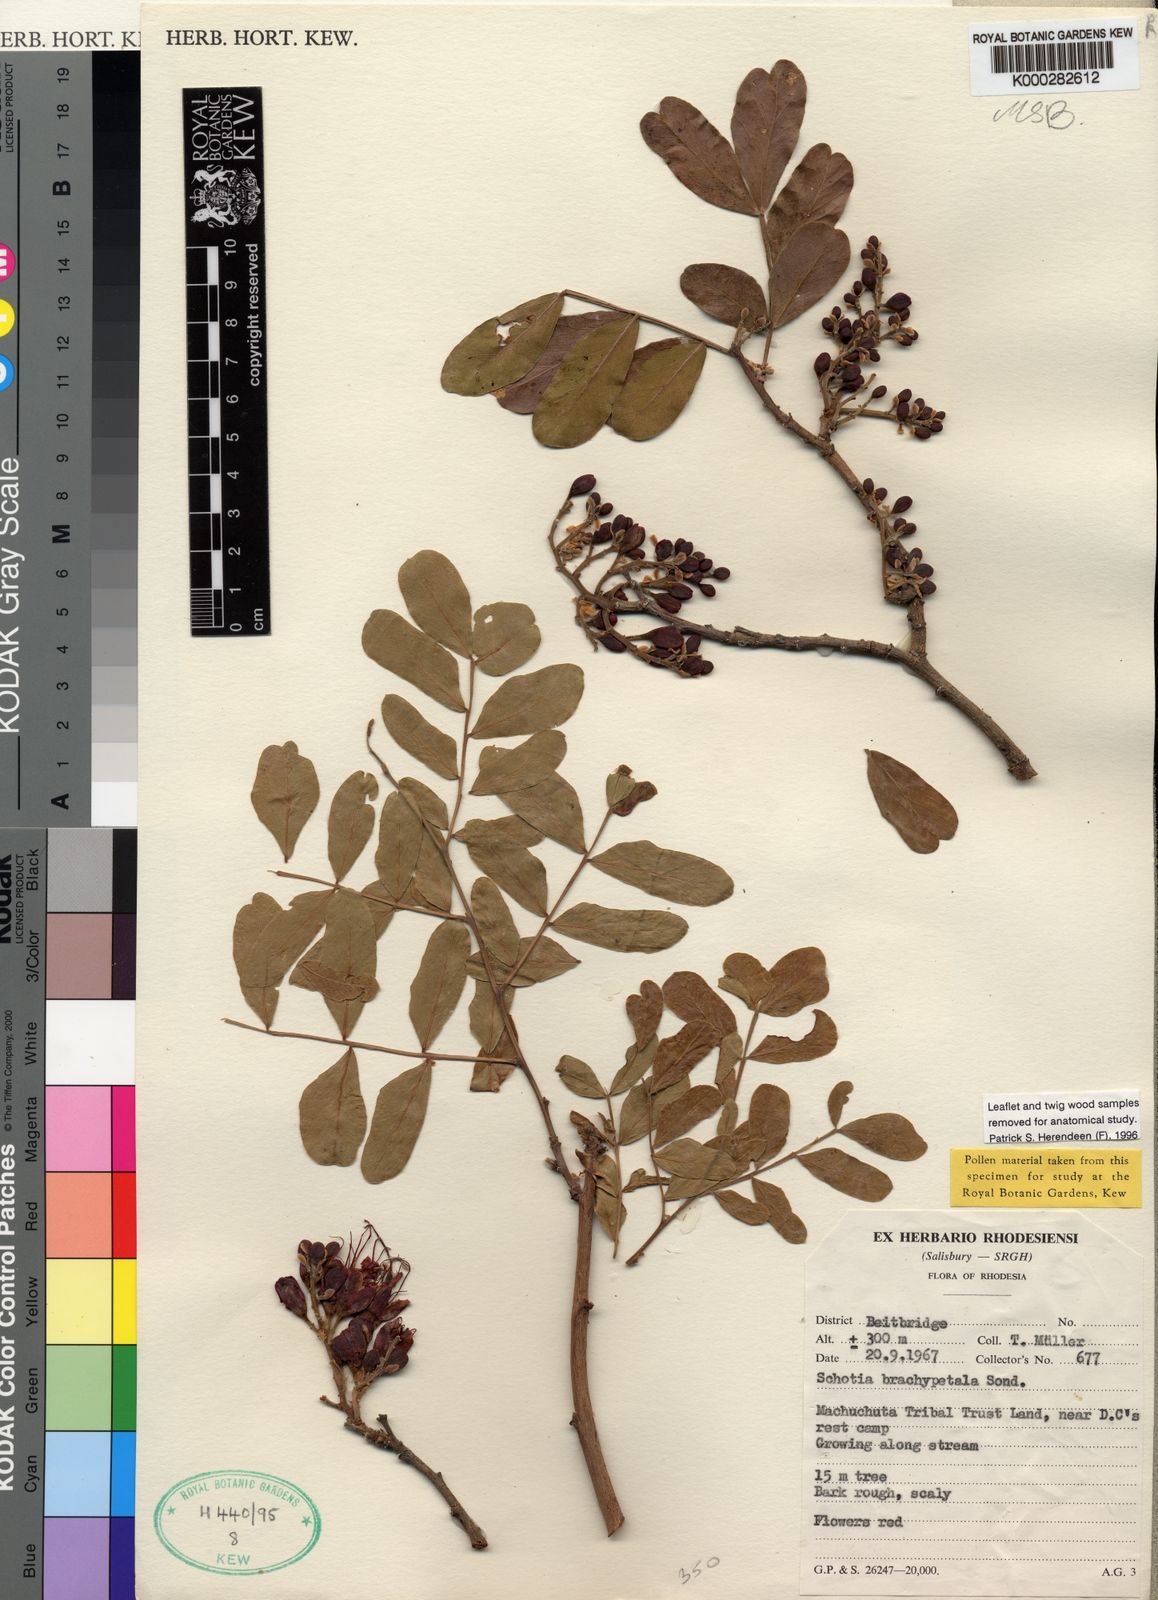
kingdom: Plantae
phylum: Tracheophyta
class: Magnoliopsida
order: Fabales
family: Fabaceae
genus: Schotia
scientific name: Schotia brachypetala
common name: Weeping boer-bean
